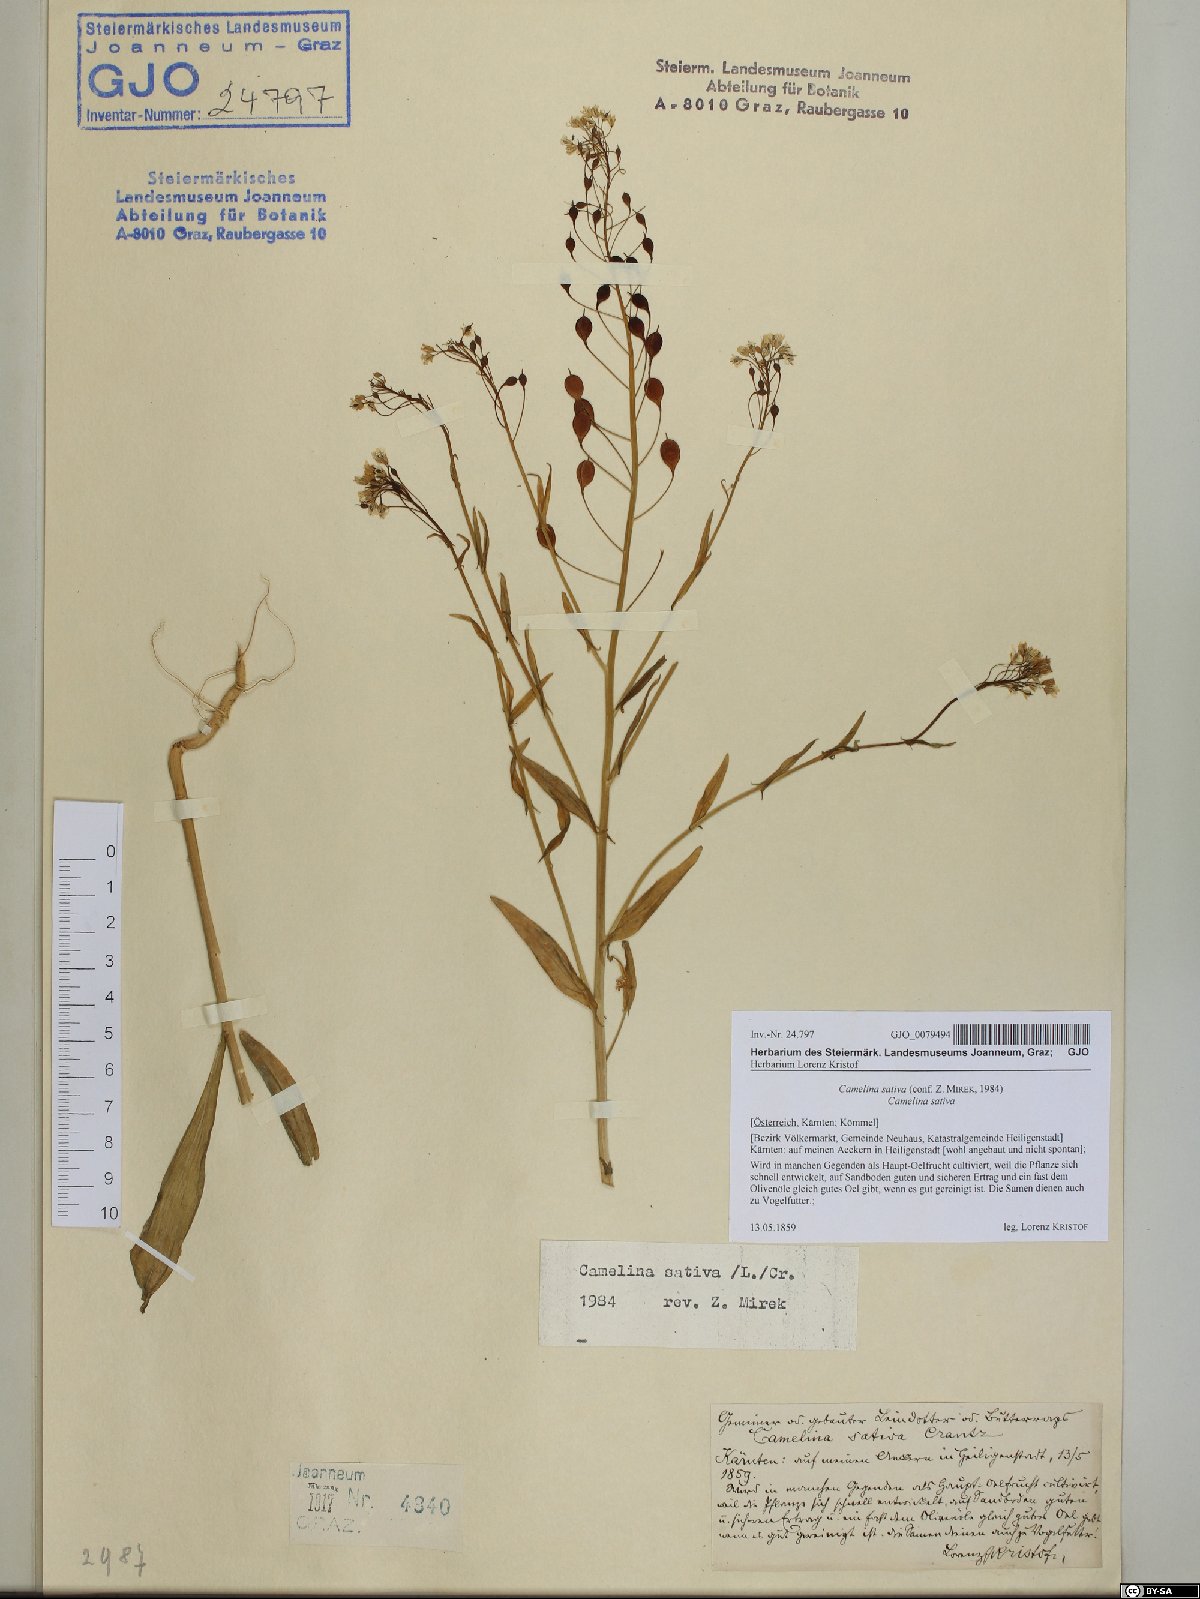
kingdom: Plantae
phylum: Tracheophyta
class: Magnoliopsida
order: Brassicales
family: Brassicaceae
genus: Camelina
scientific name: Camelina sativa
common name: Gold-of-pleasure
